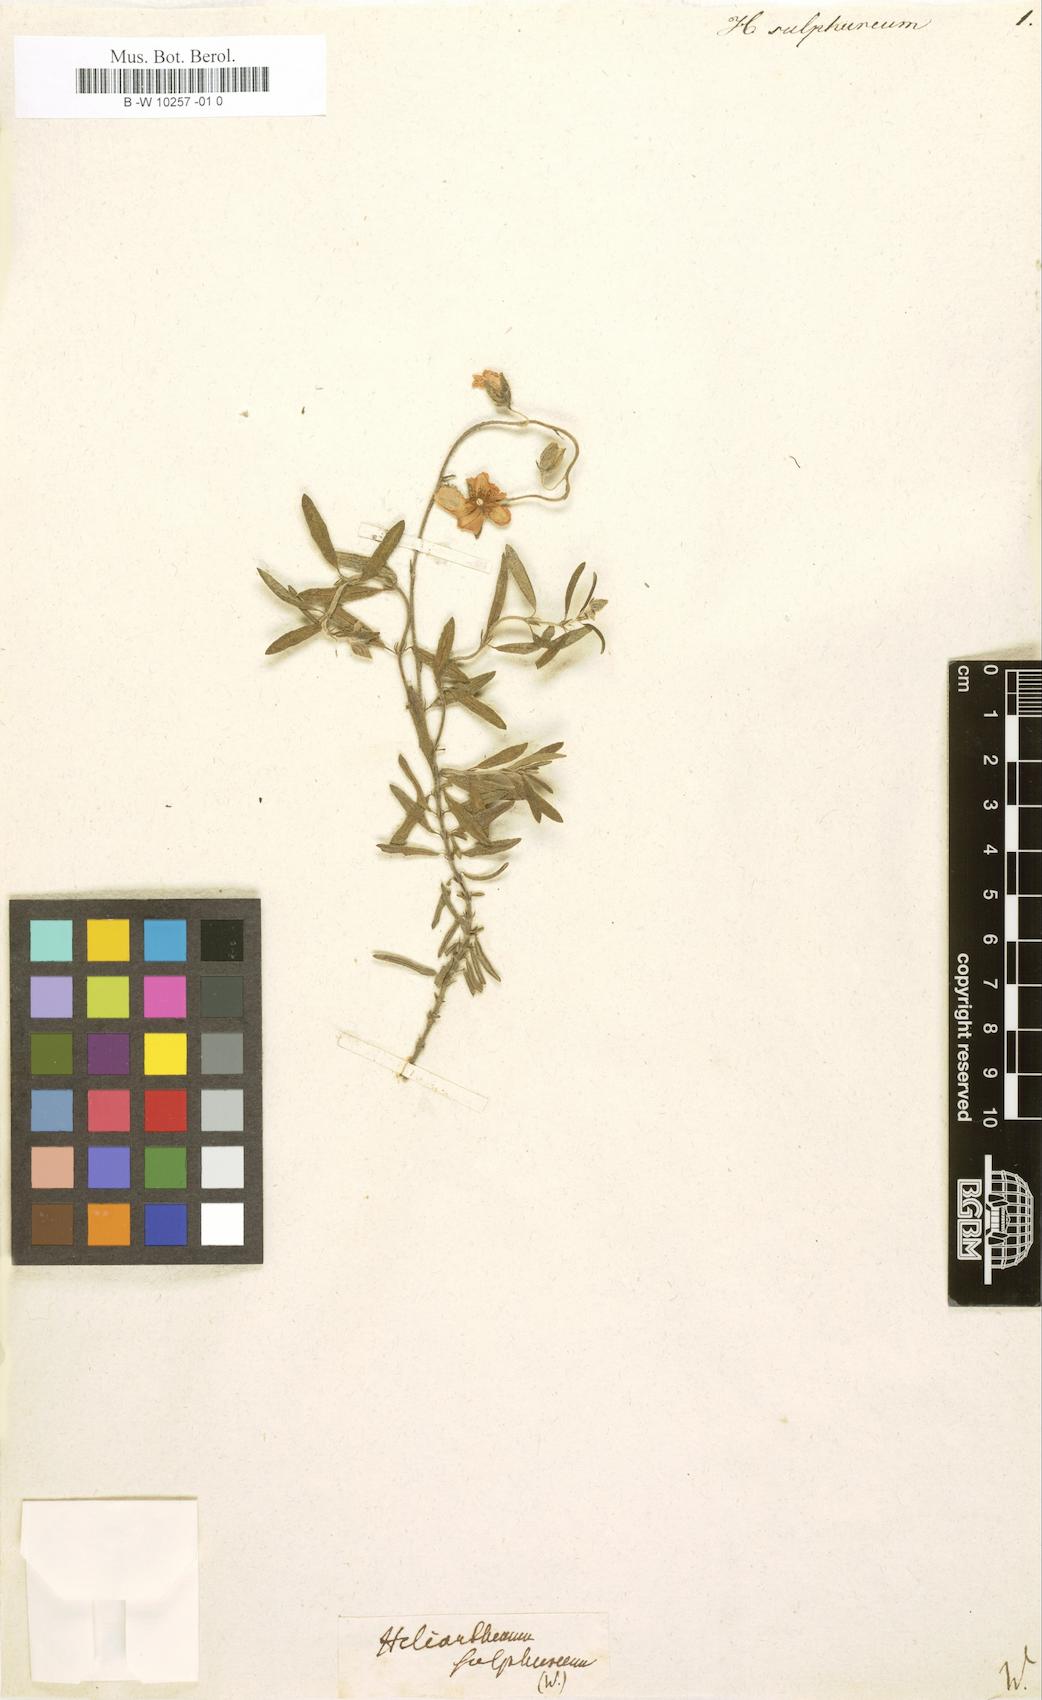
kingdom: Plantae
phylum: Tracheophyta
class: Magnoliopsida
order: Malvales
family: Cistaceae
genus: Helianthemum
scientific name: Helianthemum sulphureum
